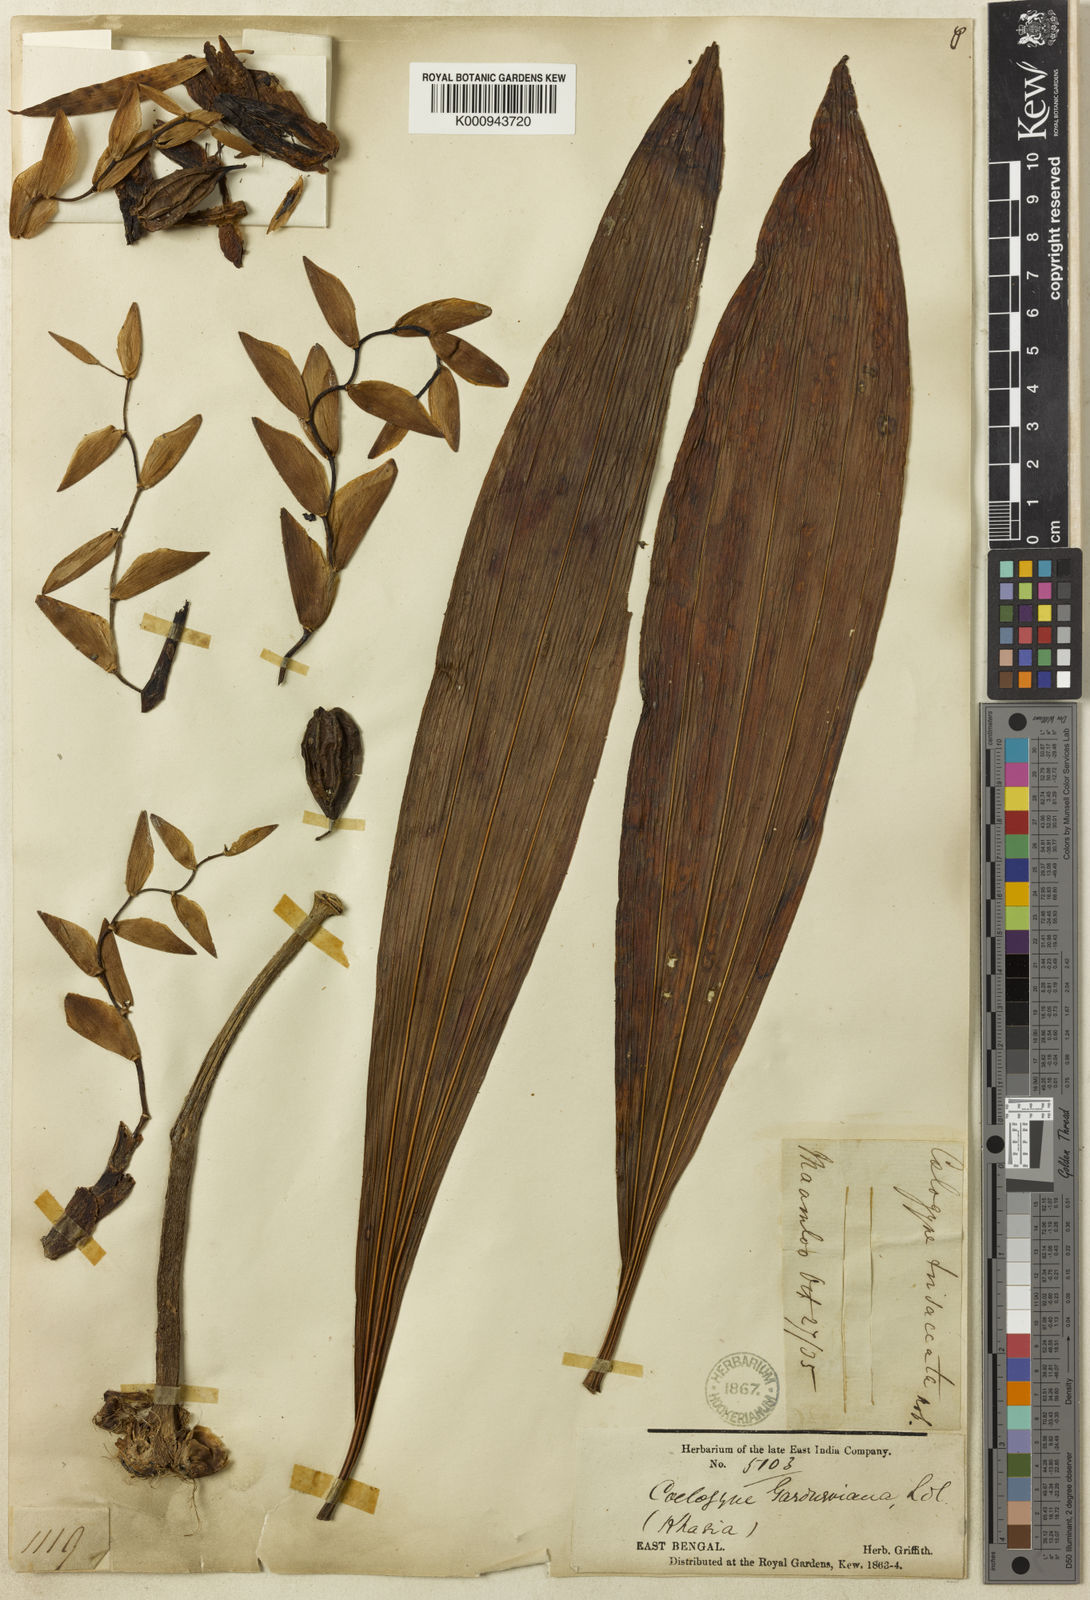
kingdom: Plantae
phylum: Tracheophyta
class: Liliopsida
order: Asparagales
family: Orchidaceae
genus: Coelogyne
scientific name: Coelogyne gardneriana
